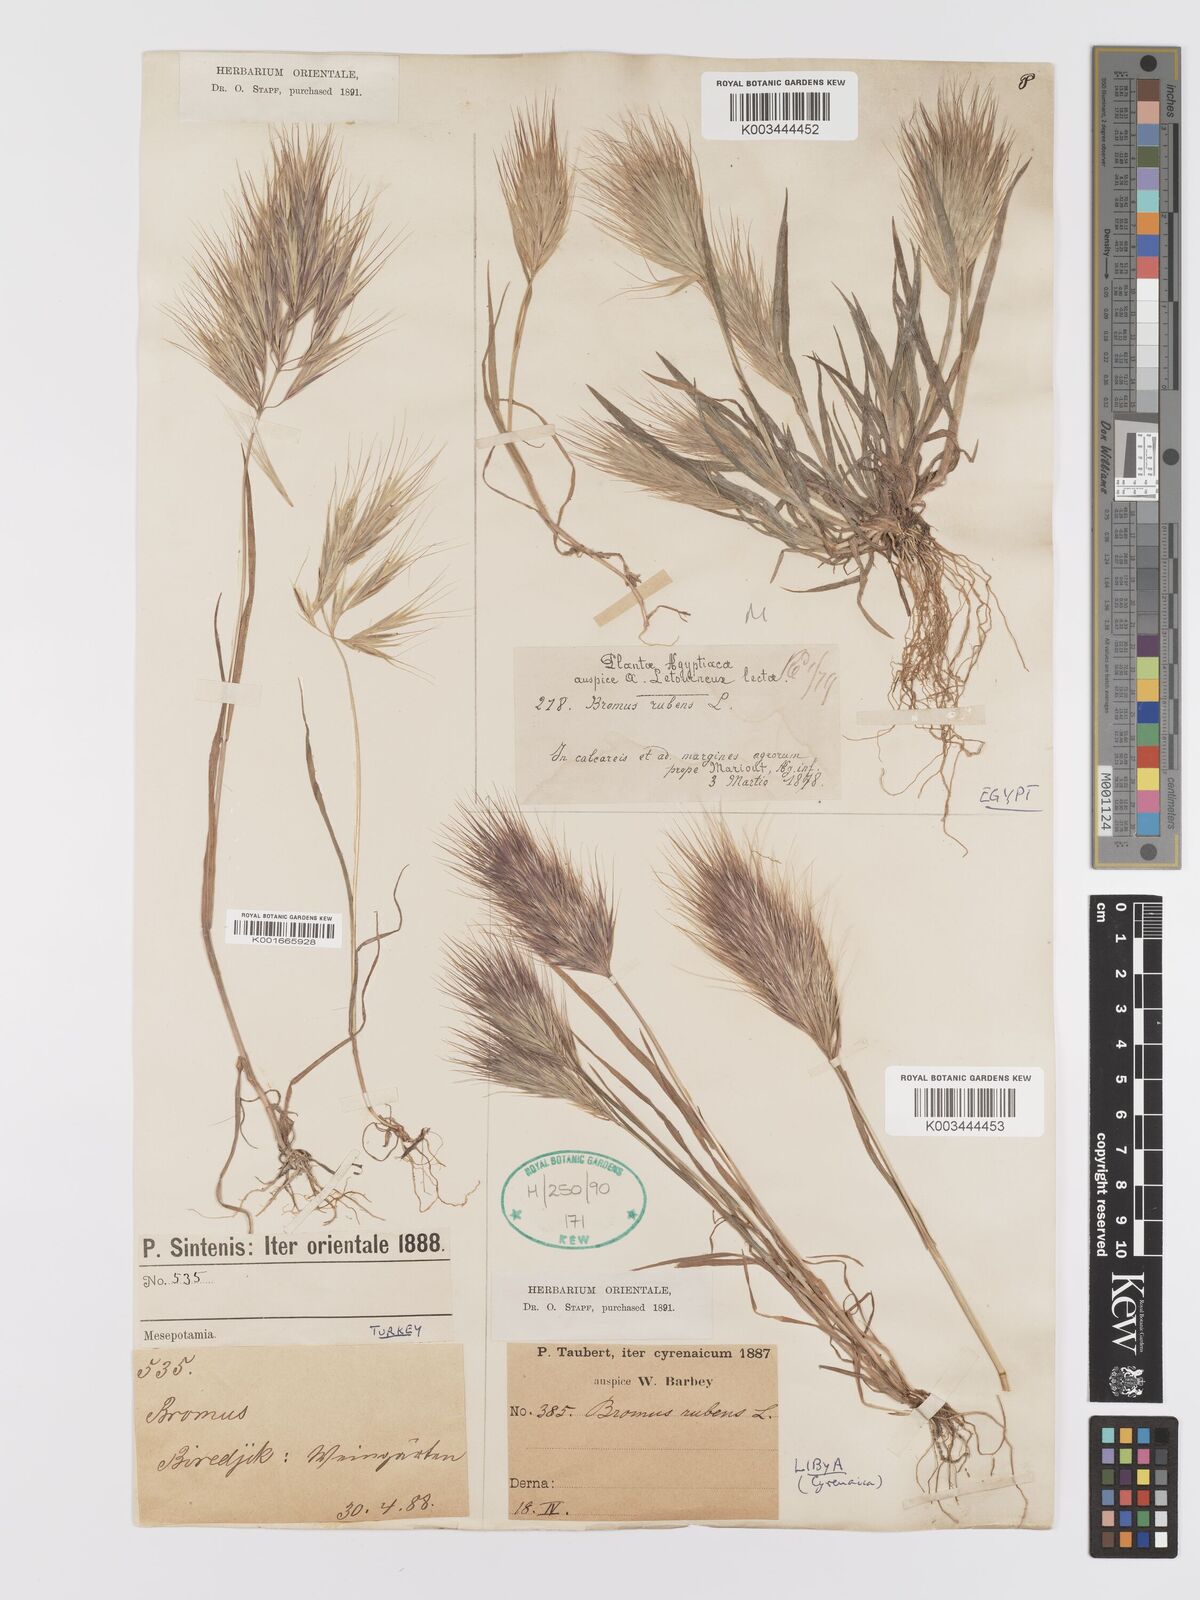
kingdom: Plantae
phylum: Tracheophyta
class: Liliopsida
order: Poales
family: Poaceae
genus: Bromus
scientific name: Bromus rubens
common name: Red brome
